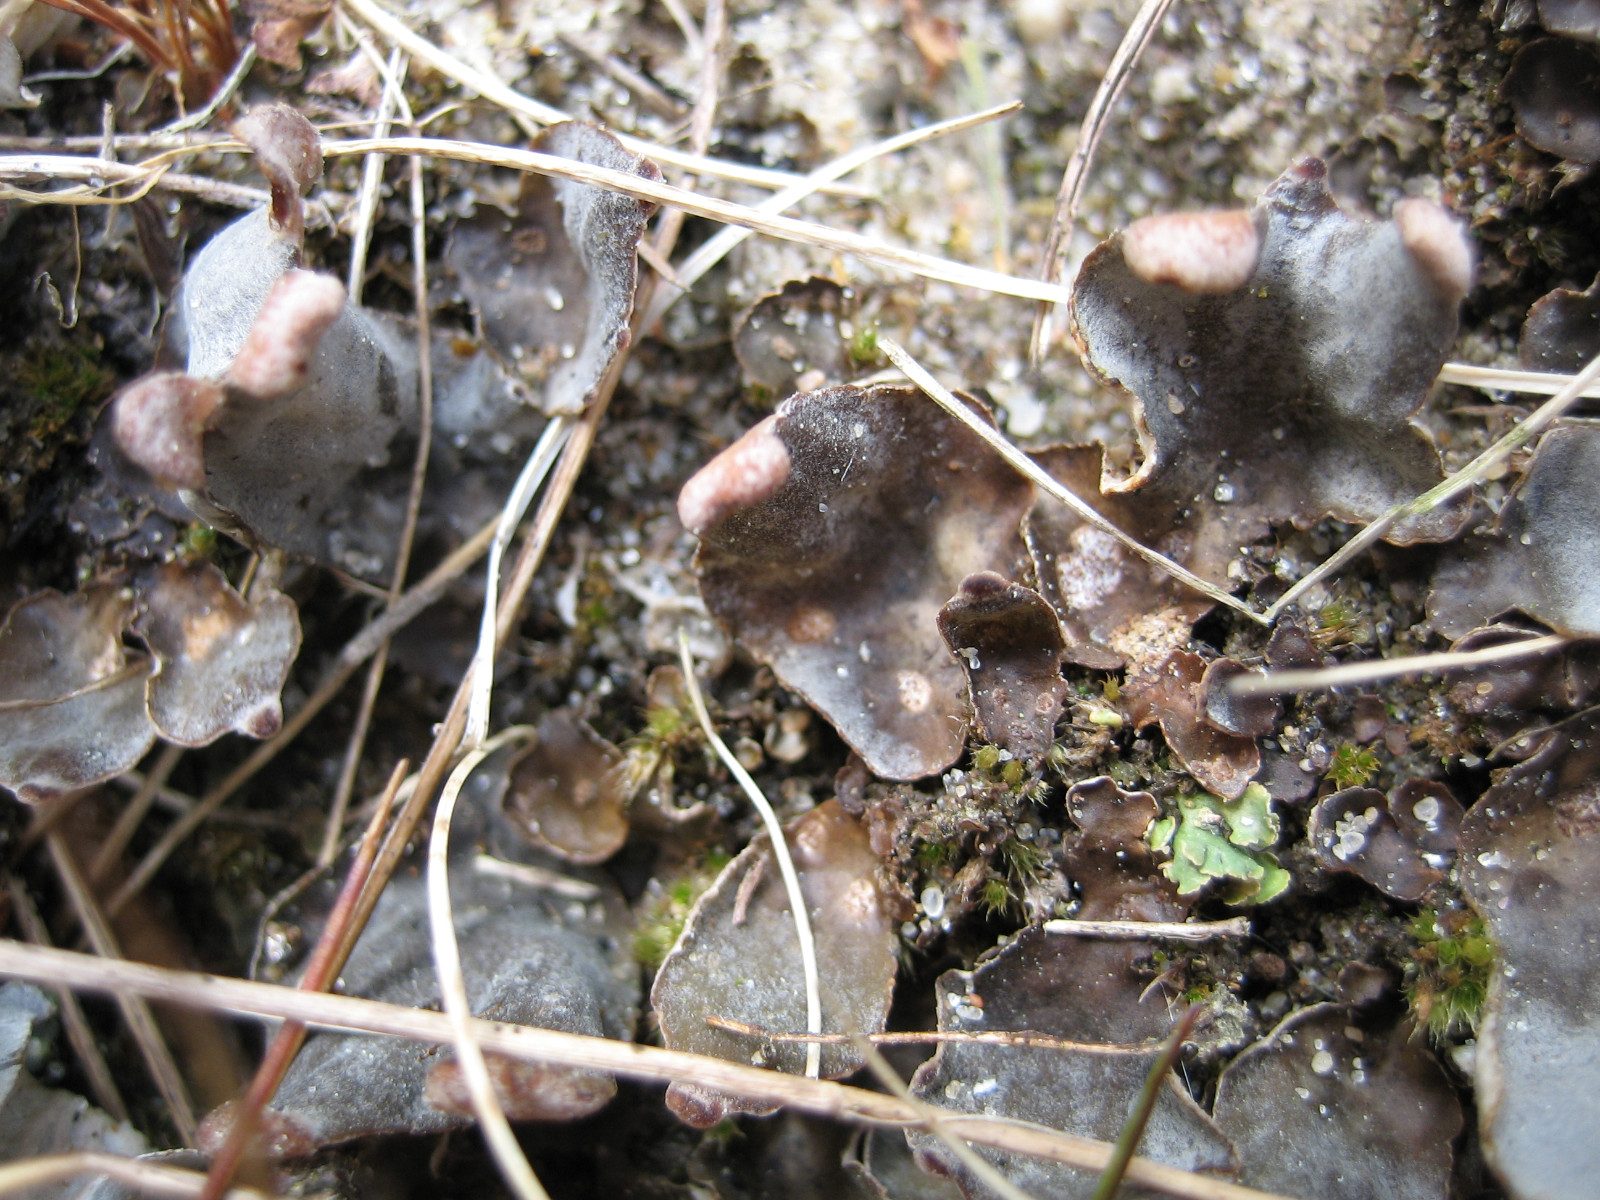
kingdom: Fungi
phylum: Ascomycota
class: Lecanoromycetes
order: Peltigerales
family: Peltigeraceae
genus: Peltigera
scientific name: Peltigera didactyla
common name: liden skjoldlav
